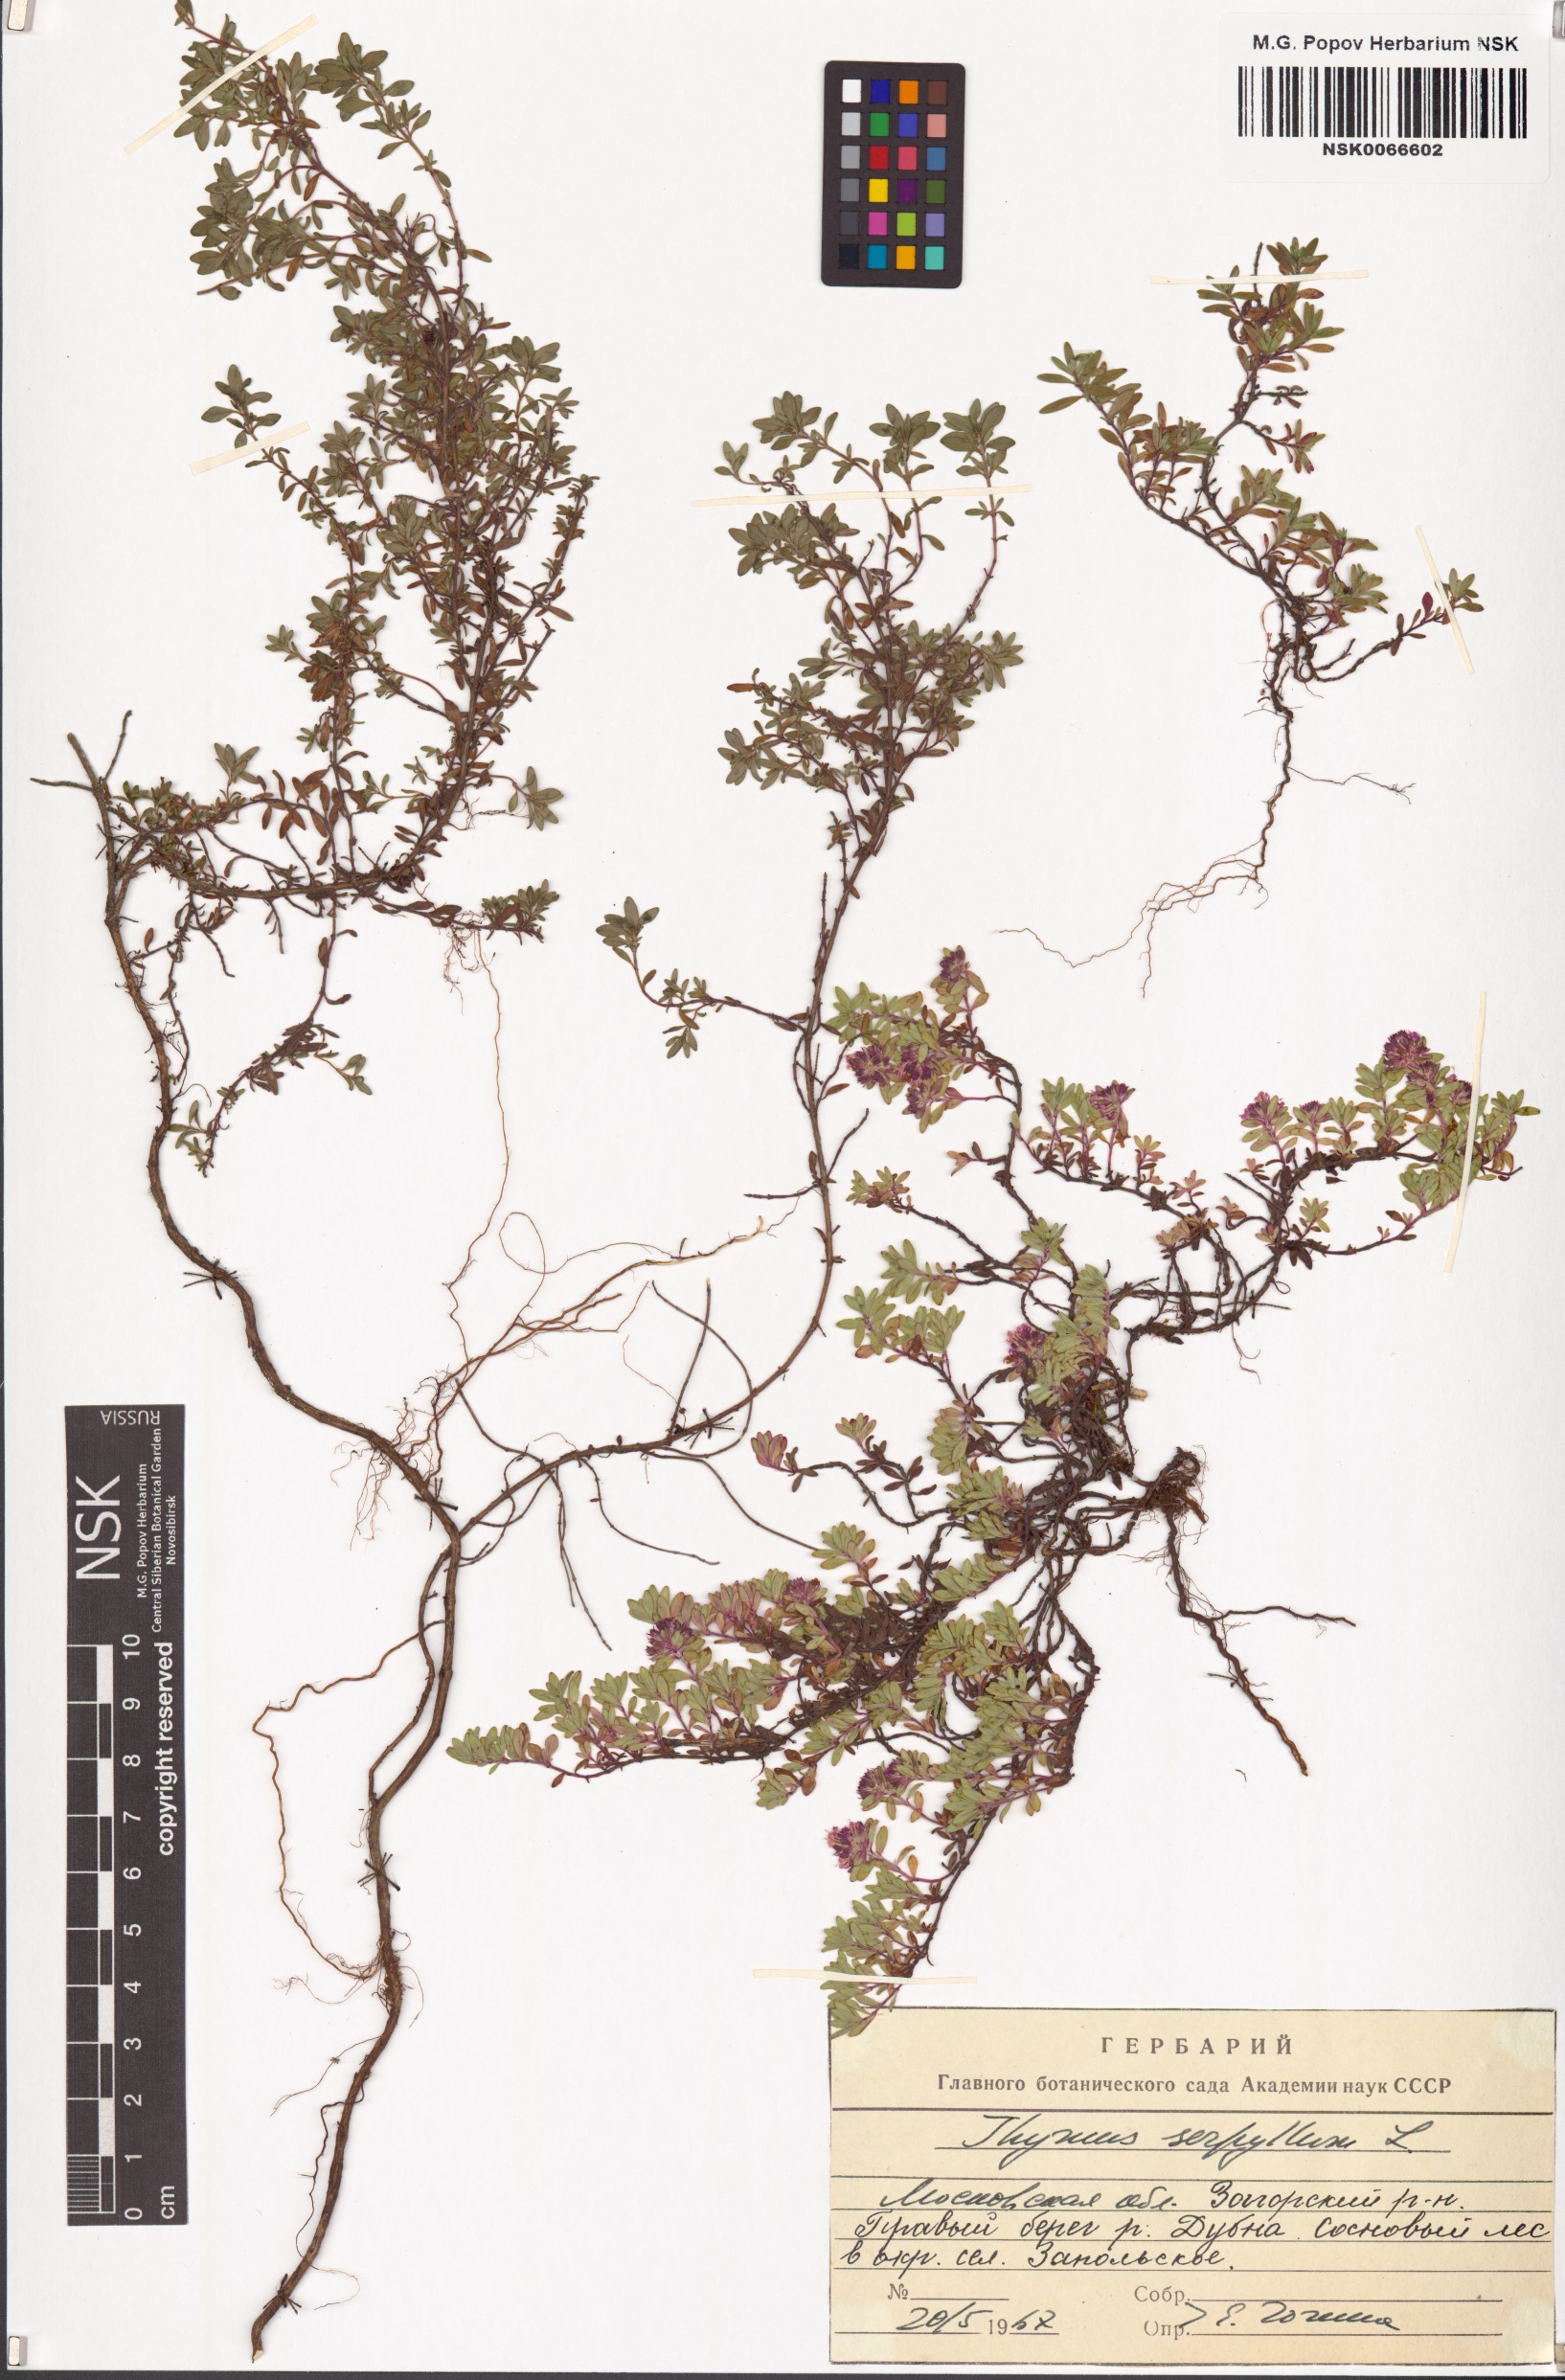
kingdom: Plantae
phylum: Tracheophyta
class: Magnoliopsida
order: Lamiales
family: Lamiaceae
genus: Thymus
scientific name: Thymus serpyllum
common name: Breckland thyme
